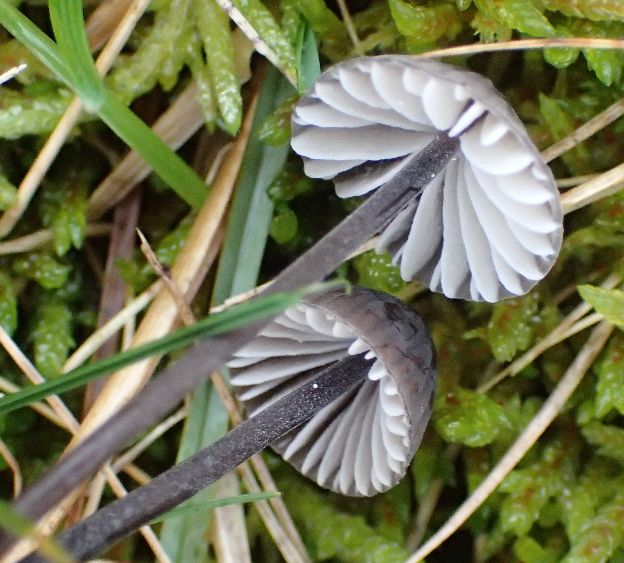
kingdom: Fungi
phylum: Basidiomycota
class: Agaricomycetes
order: Agaricales
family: Mycenaceae
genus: Mycena
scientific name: Mycena galopus
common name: hvidmælket huesvamp
